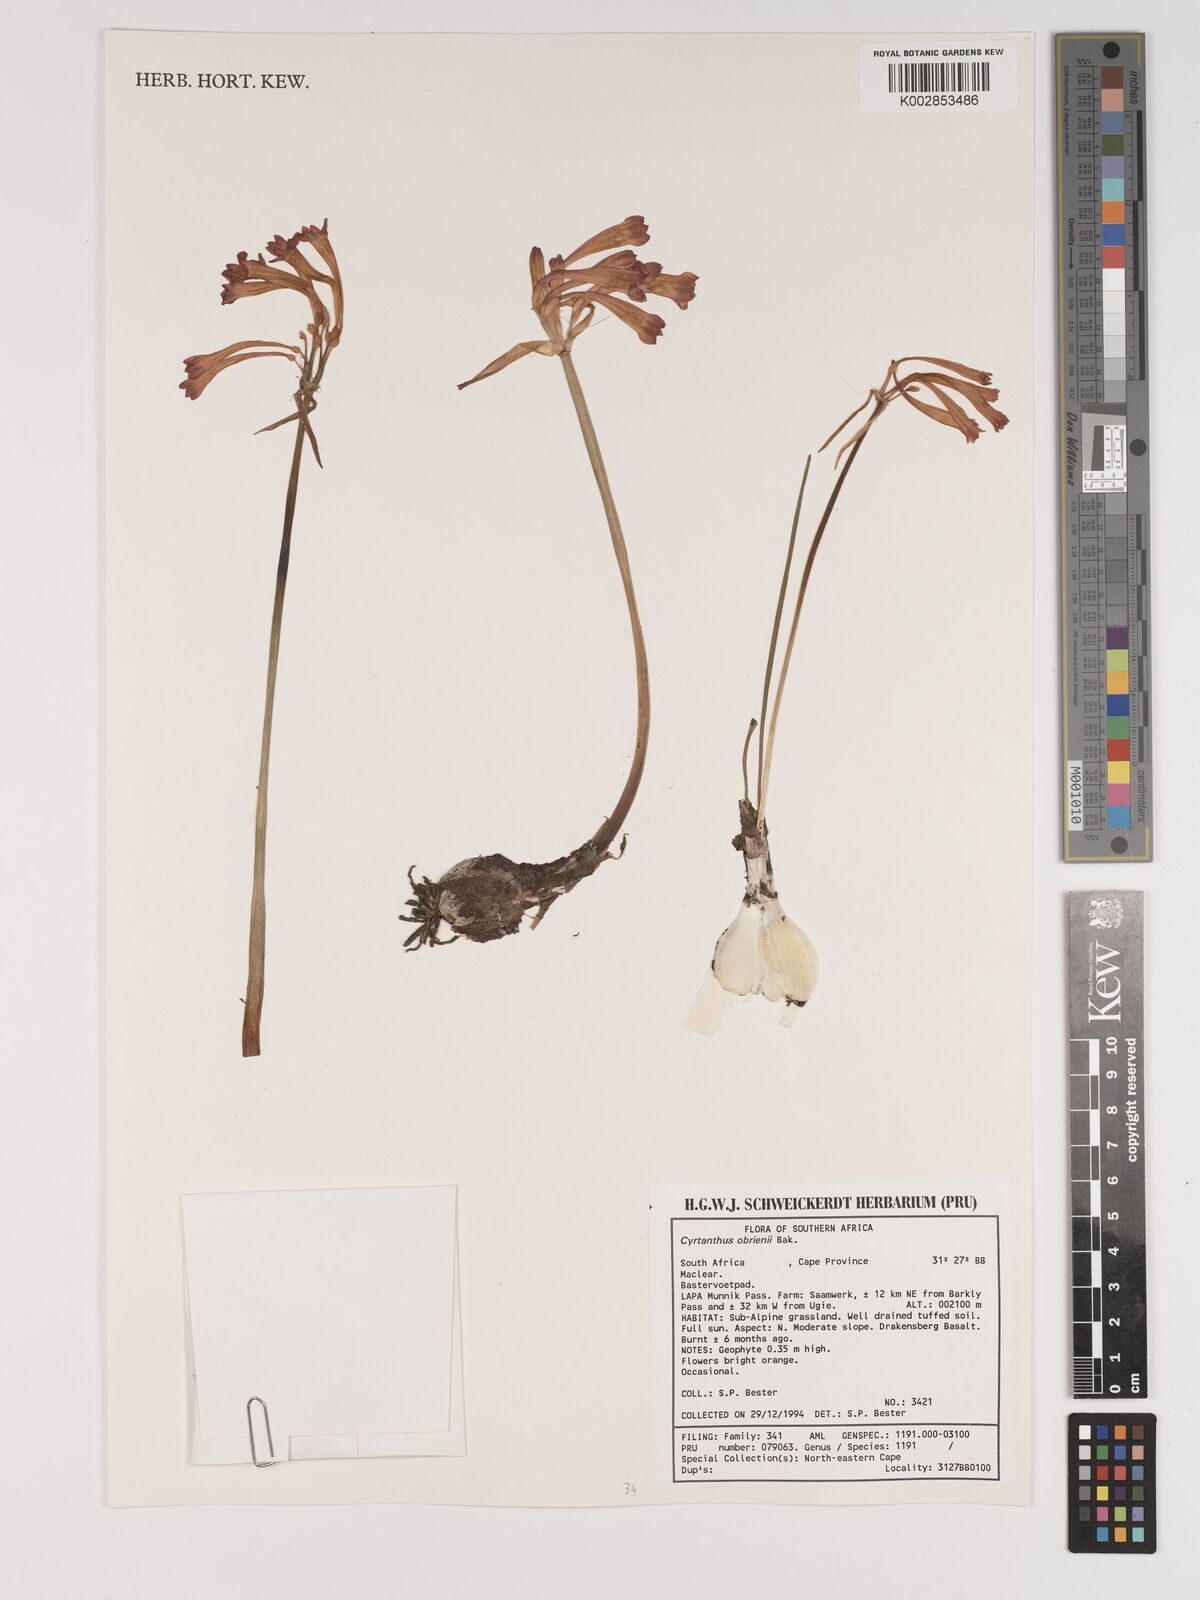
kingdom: Plantae
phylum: Tracheophyta
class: Liliopsida
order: Asparagales
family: Amaryllidaceae
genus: Cyrtanthus
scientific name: Cyrtanthus obrienii
